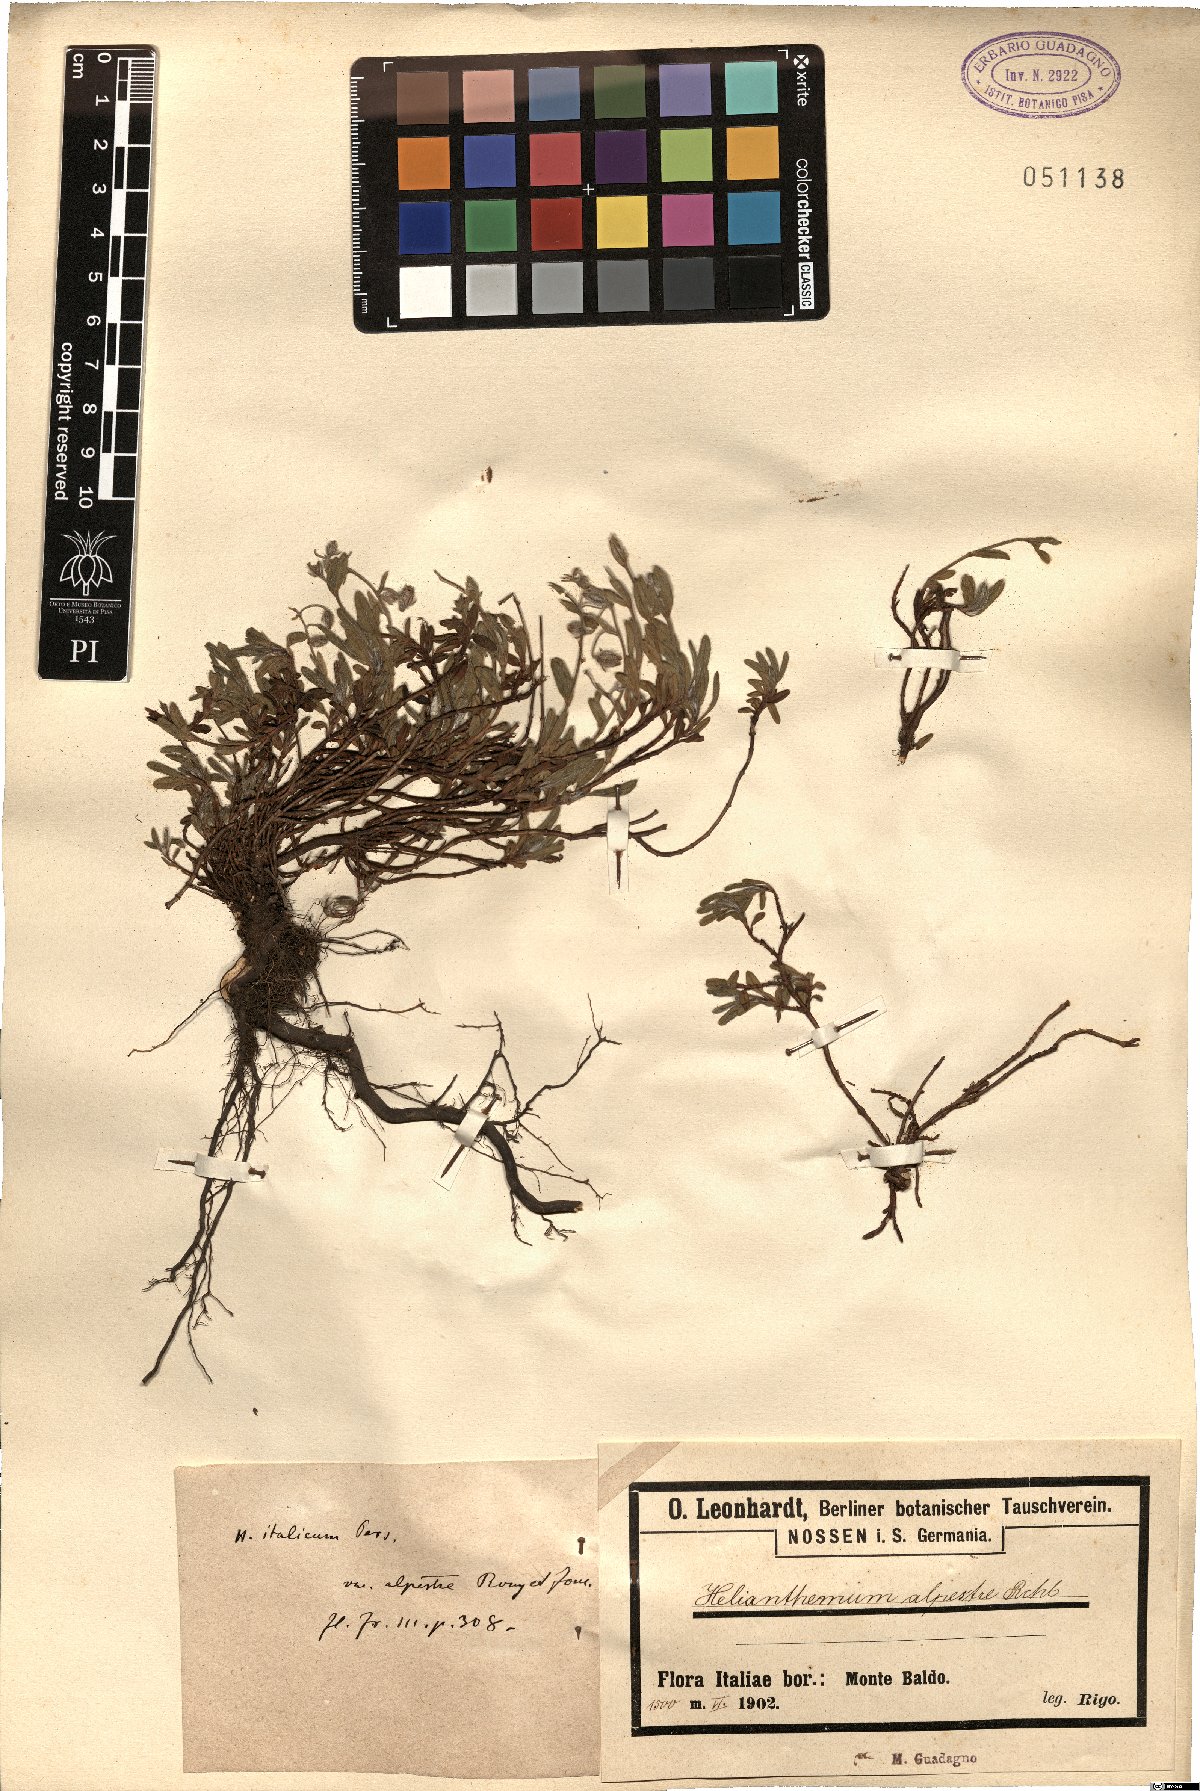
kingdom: Plantae
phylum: Tracheophyta
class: Magnoliopsida
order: Malvales
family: Cistaceae
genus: Helianthemum
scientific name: Helianthemum alpestre
